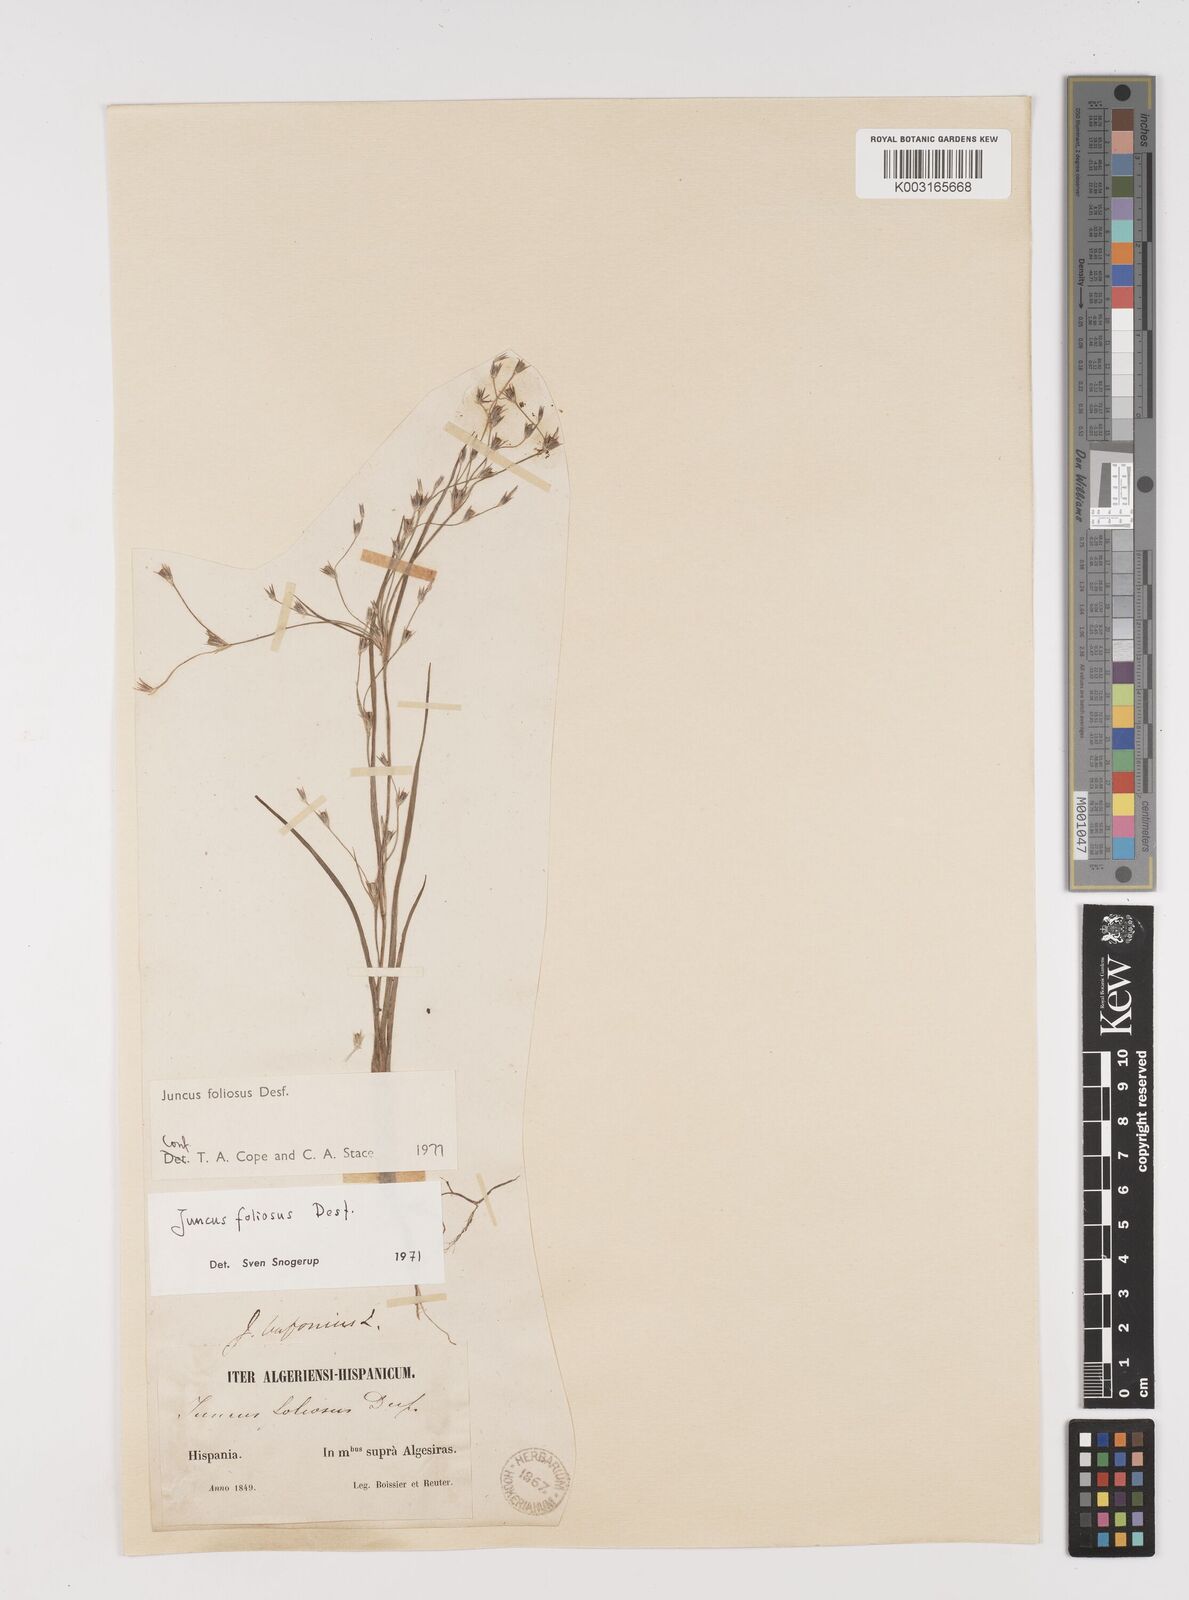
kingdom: Plantae
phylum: Tracheophyta
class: Liliopsida
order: Poales
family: Juncaceae
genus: Juncus
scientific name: Juncus foliosus
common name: Leafy rush
